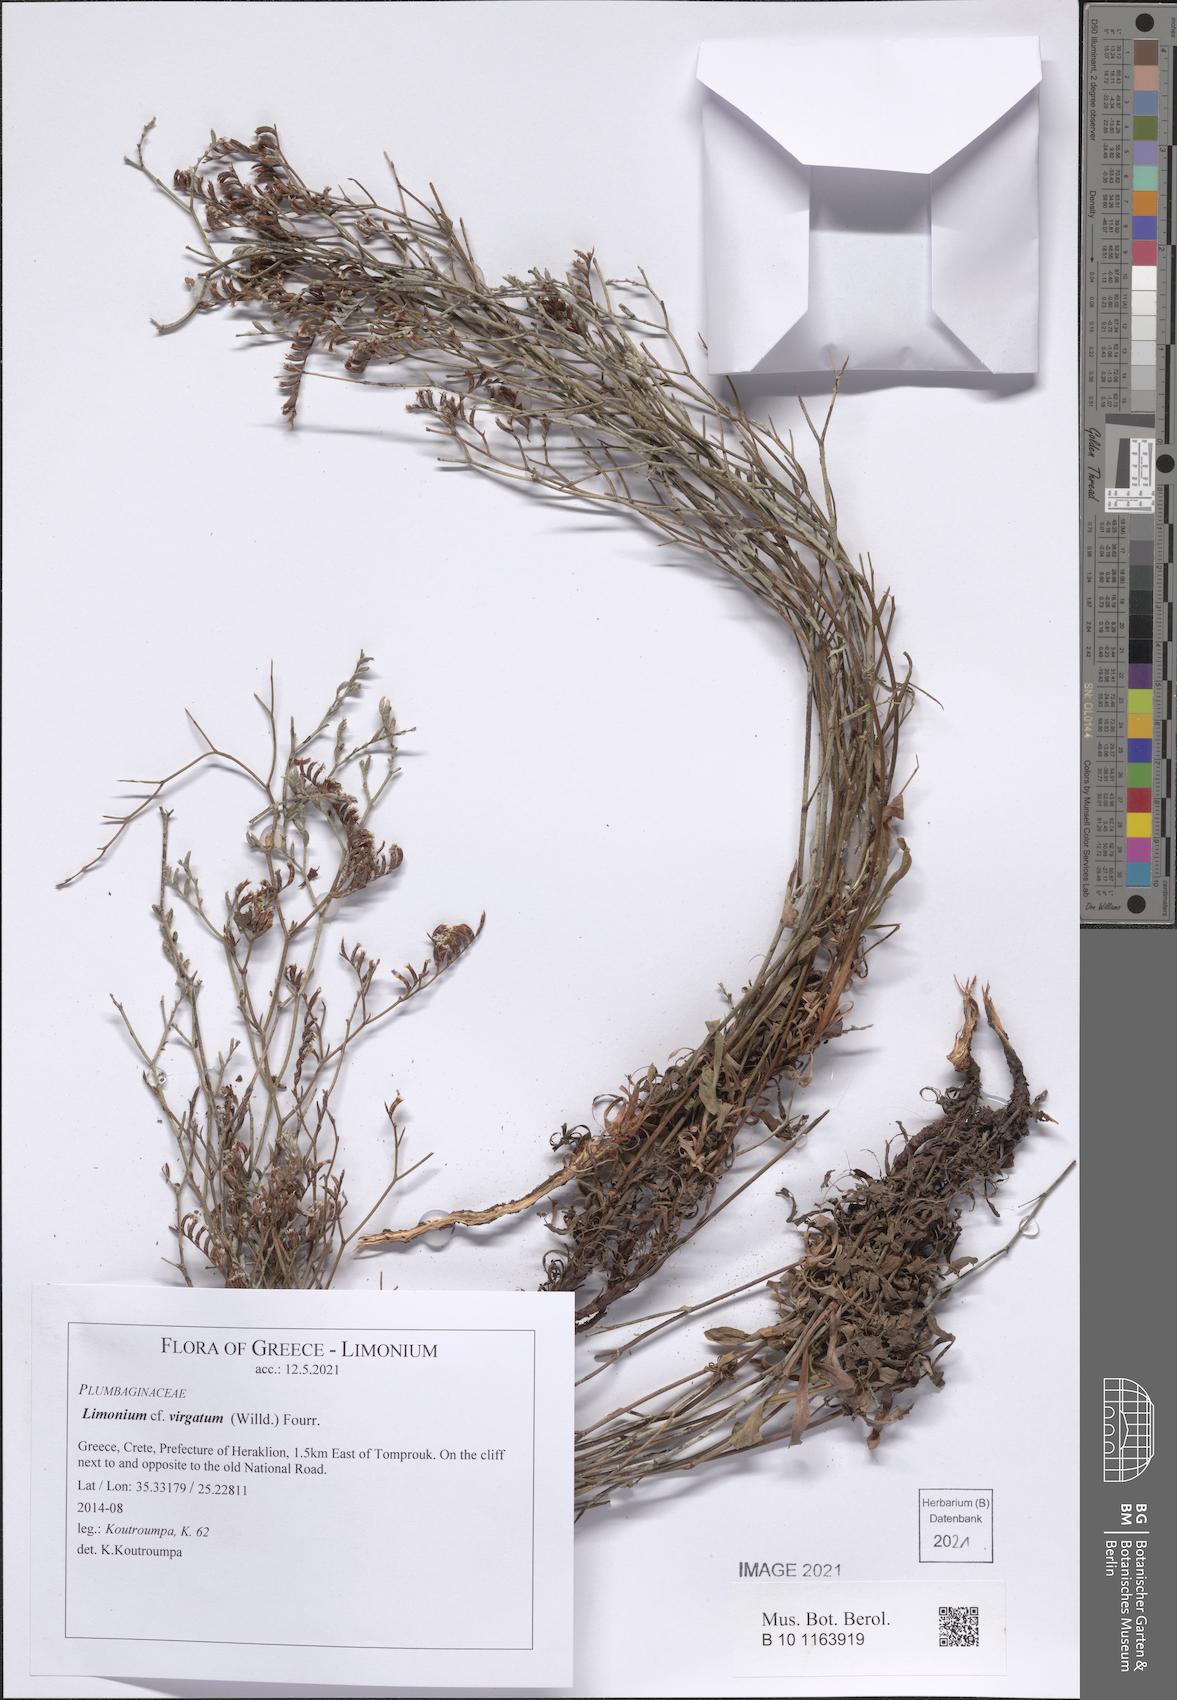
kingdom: Plantae
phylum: Tracheophyta
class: Magnoliopsida
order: Caryophyllales
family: Plumbaginaceae
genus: Limonium
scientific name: Limonium virgatum
